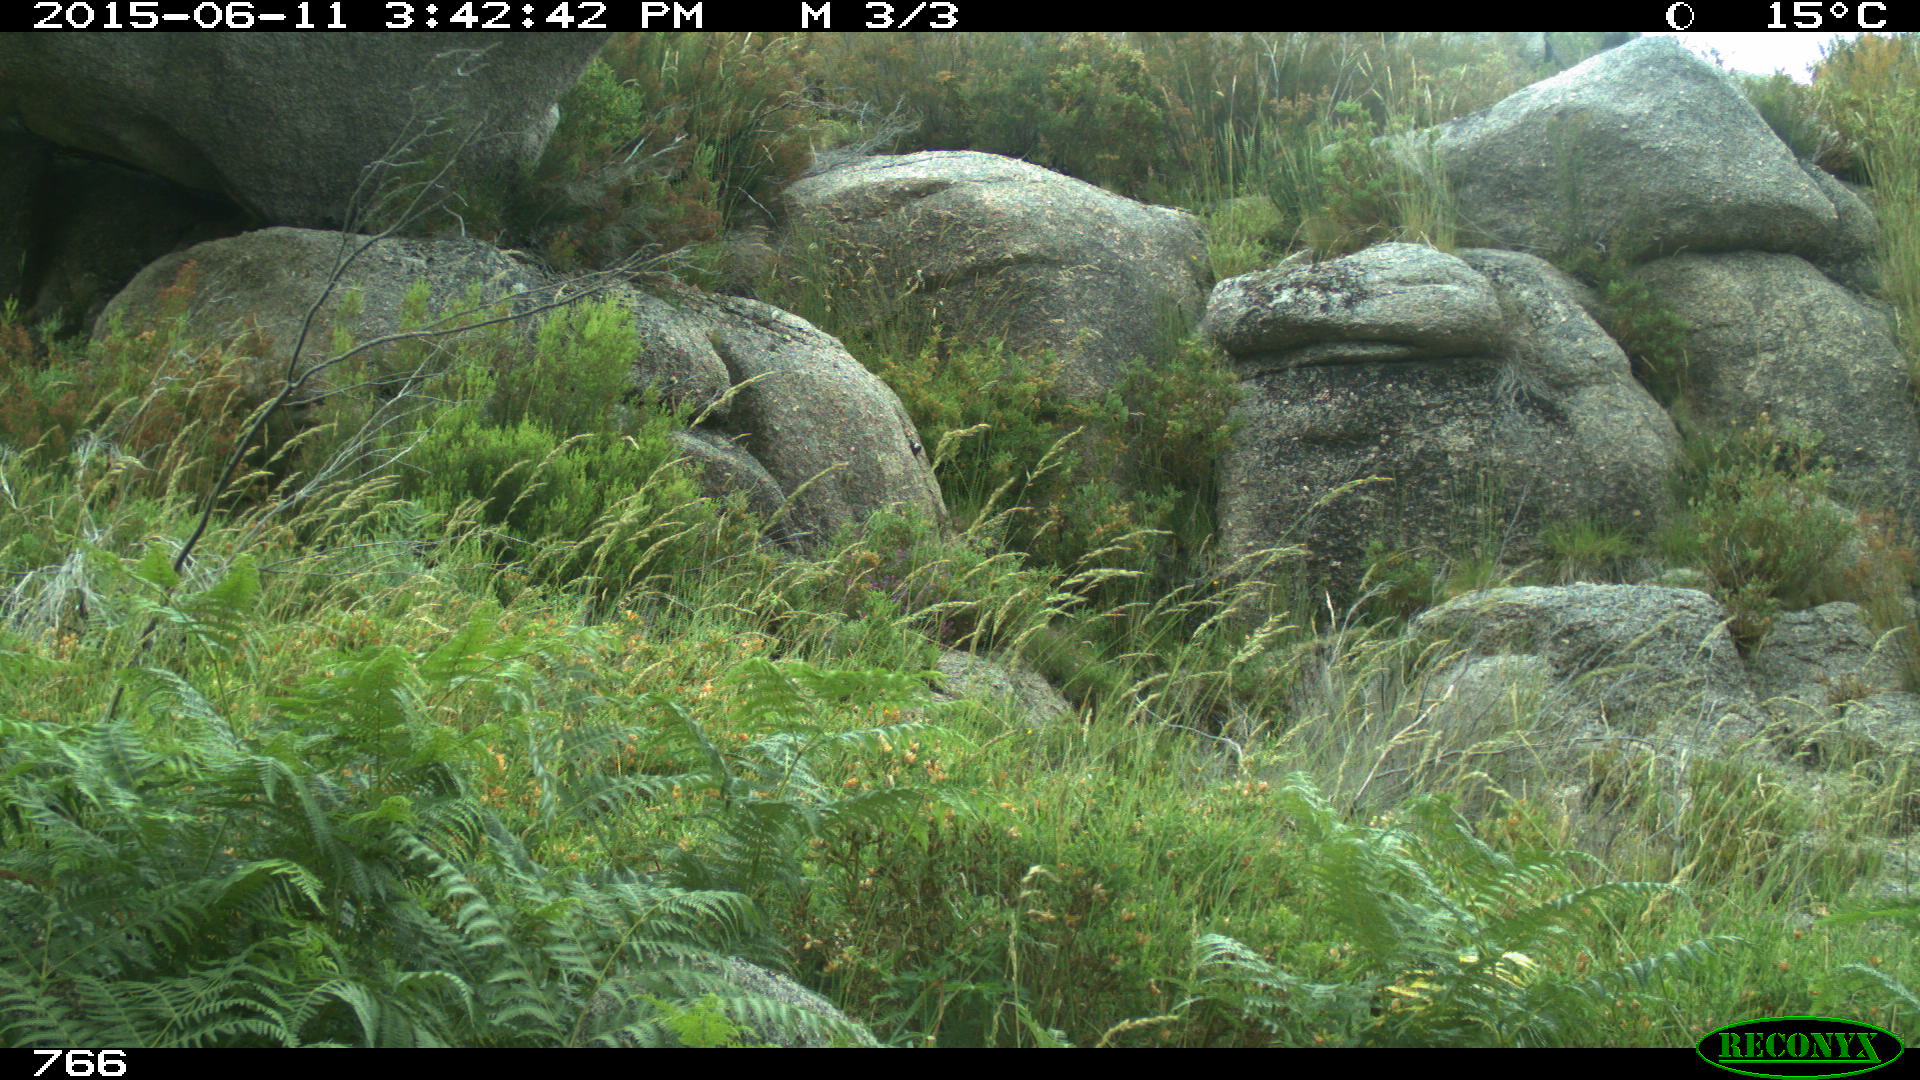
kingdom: Animalia
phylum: Chordata
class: Mammalia
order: Artiodactyla
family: Cervidae
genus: Capreolus
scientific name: Capreolus capreolus
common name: Western roe deer
